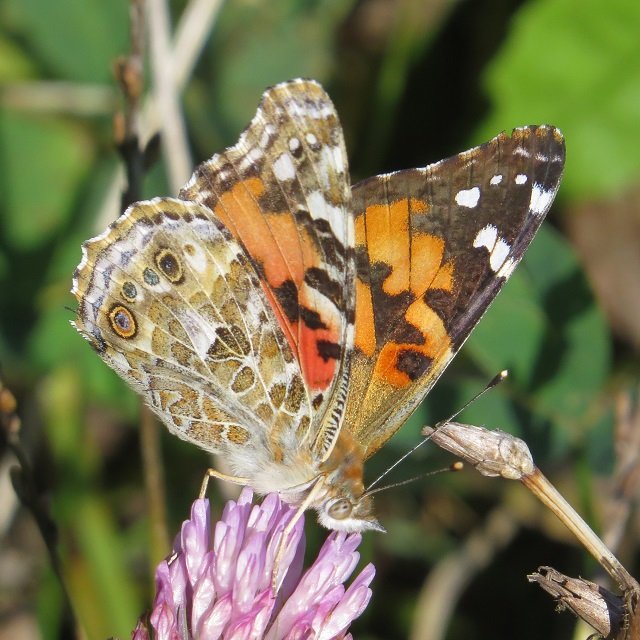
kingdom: Animalia
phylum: Arthropoda
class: Insecta
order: Lepidoptera
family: Nymphalidae
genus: Vanessa
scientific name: Vanessa cardui
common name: Painted Lady
